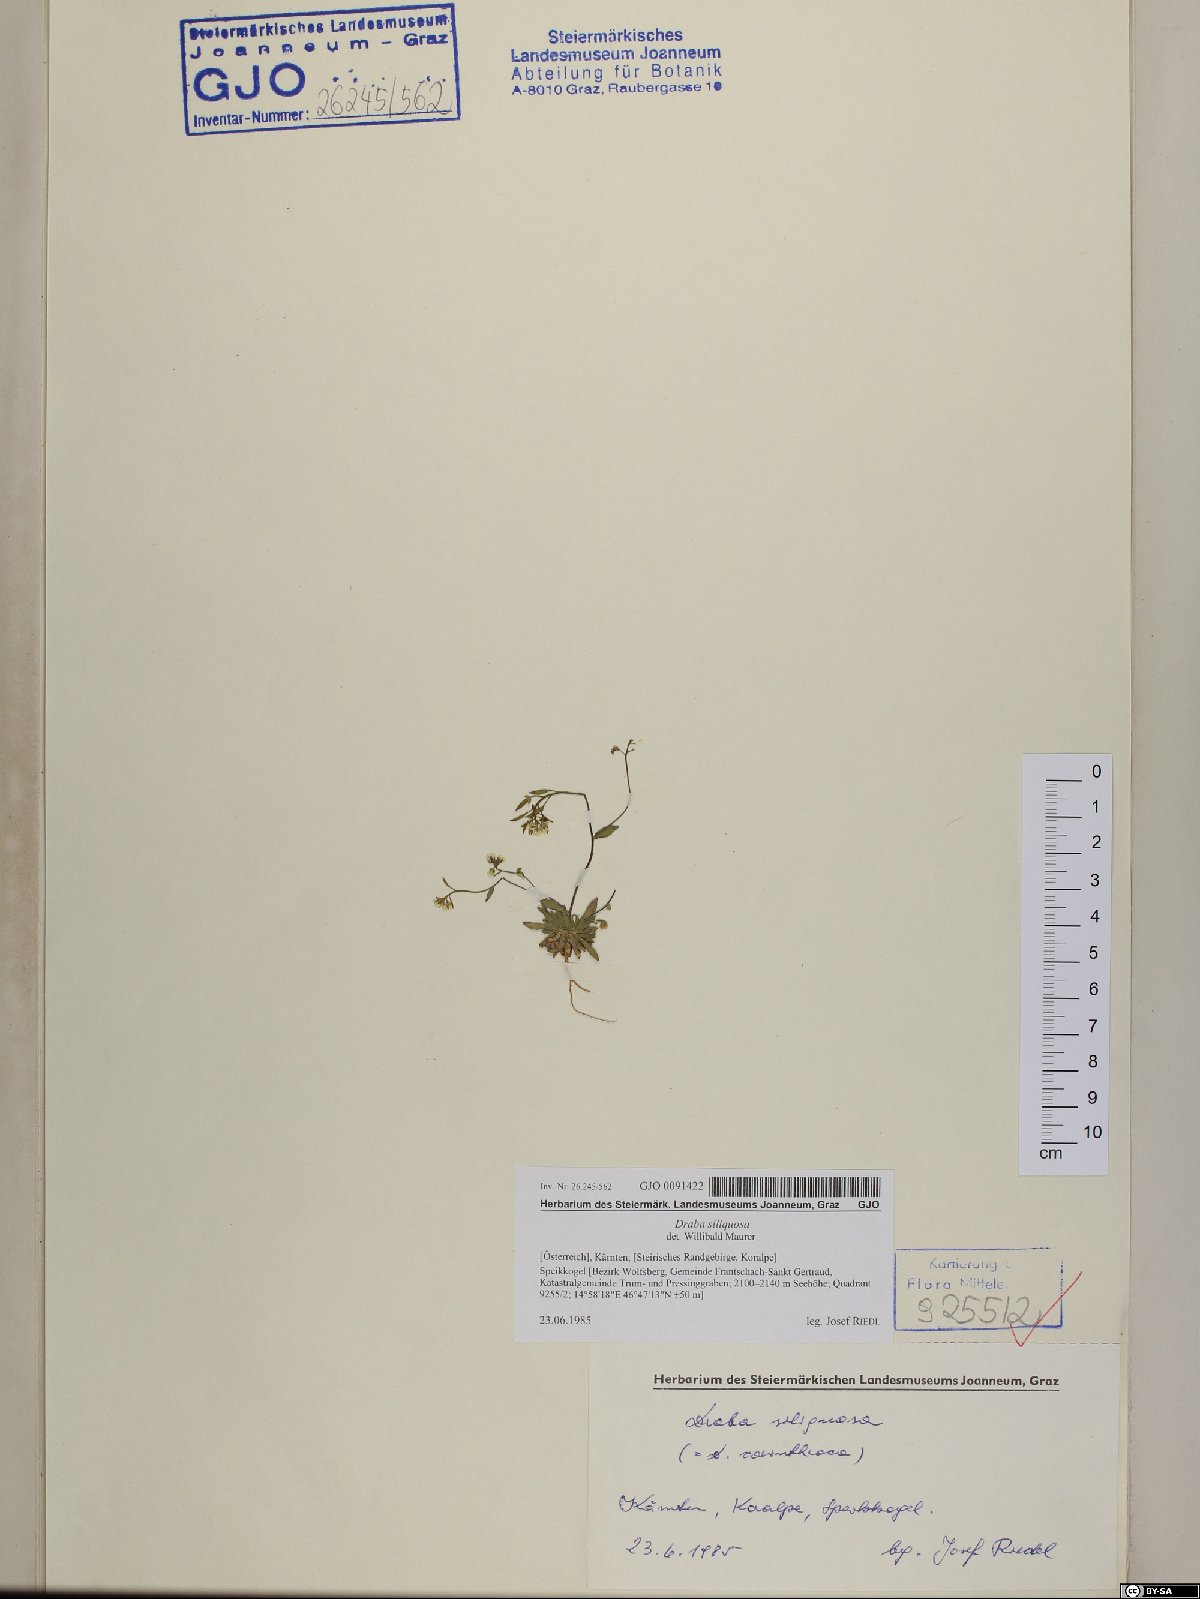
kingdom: Plantae
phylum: Tracheophyta
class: Magnoliopsida
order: Brassicales
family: Brassicaceae
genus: Draba
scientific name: Draba siliquosa
